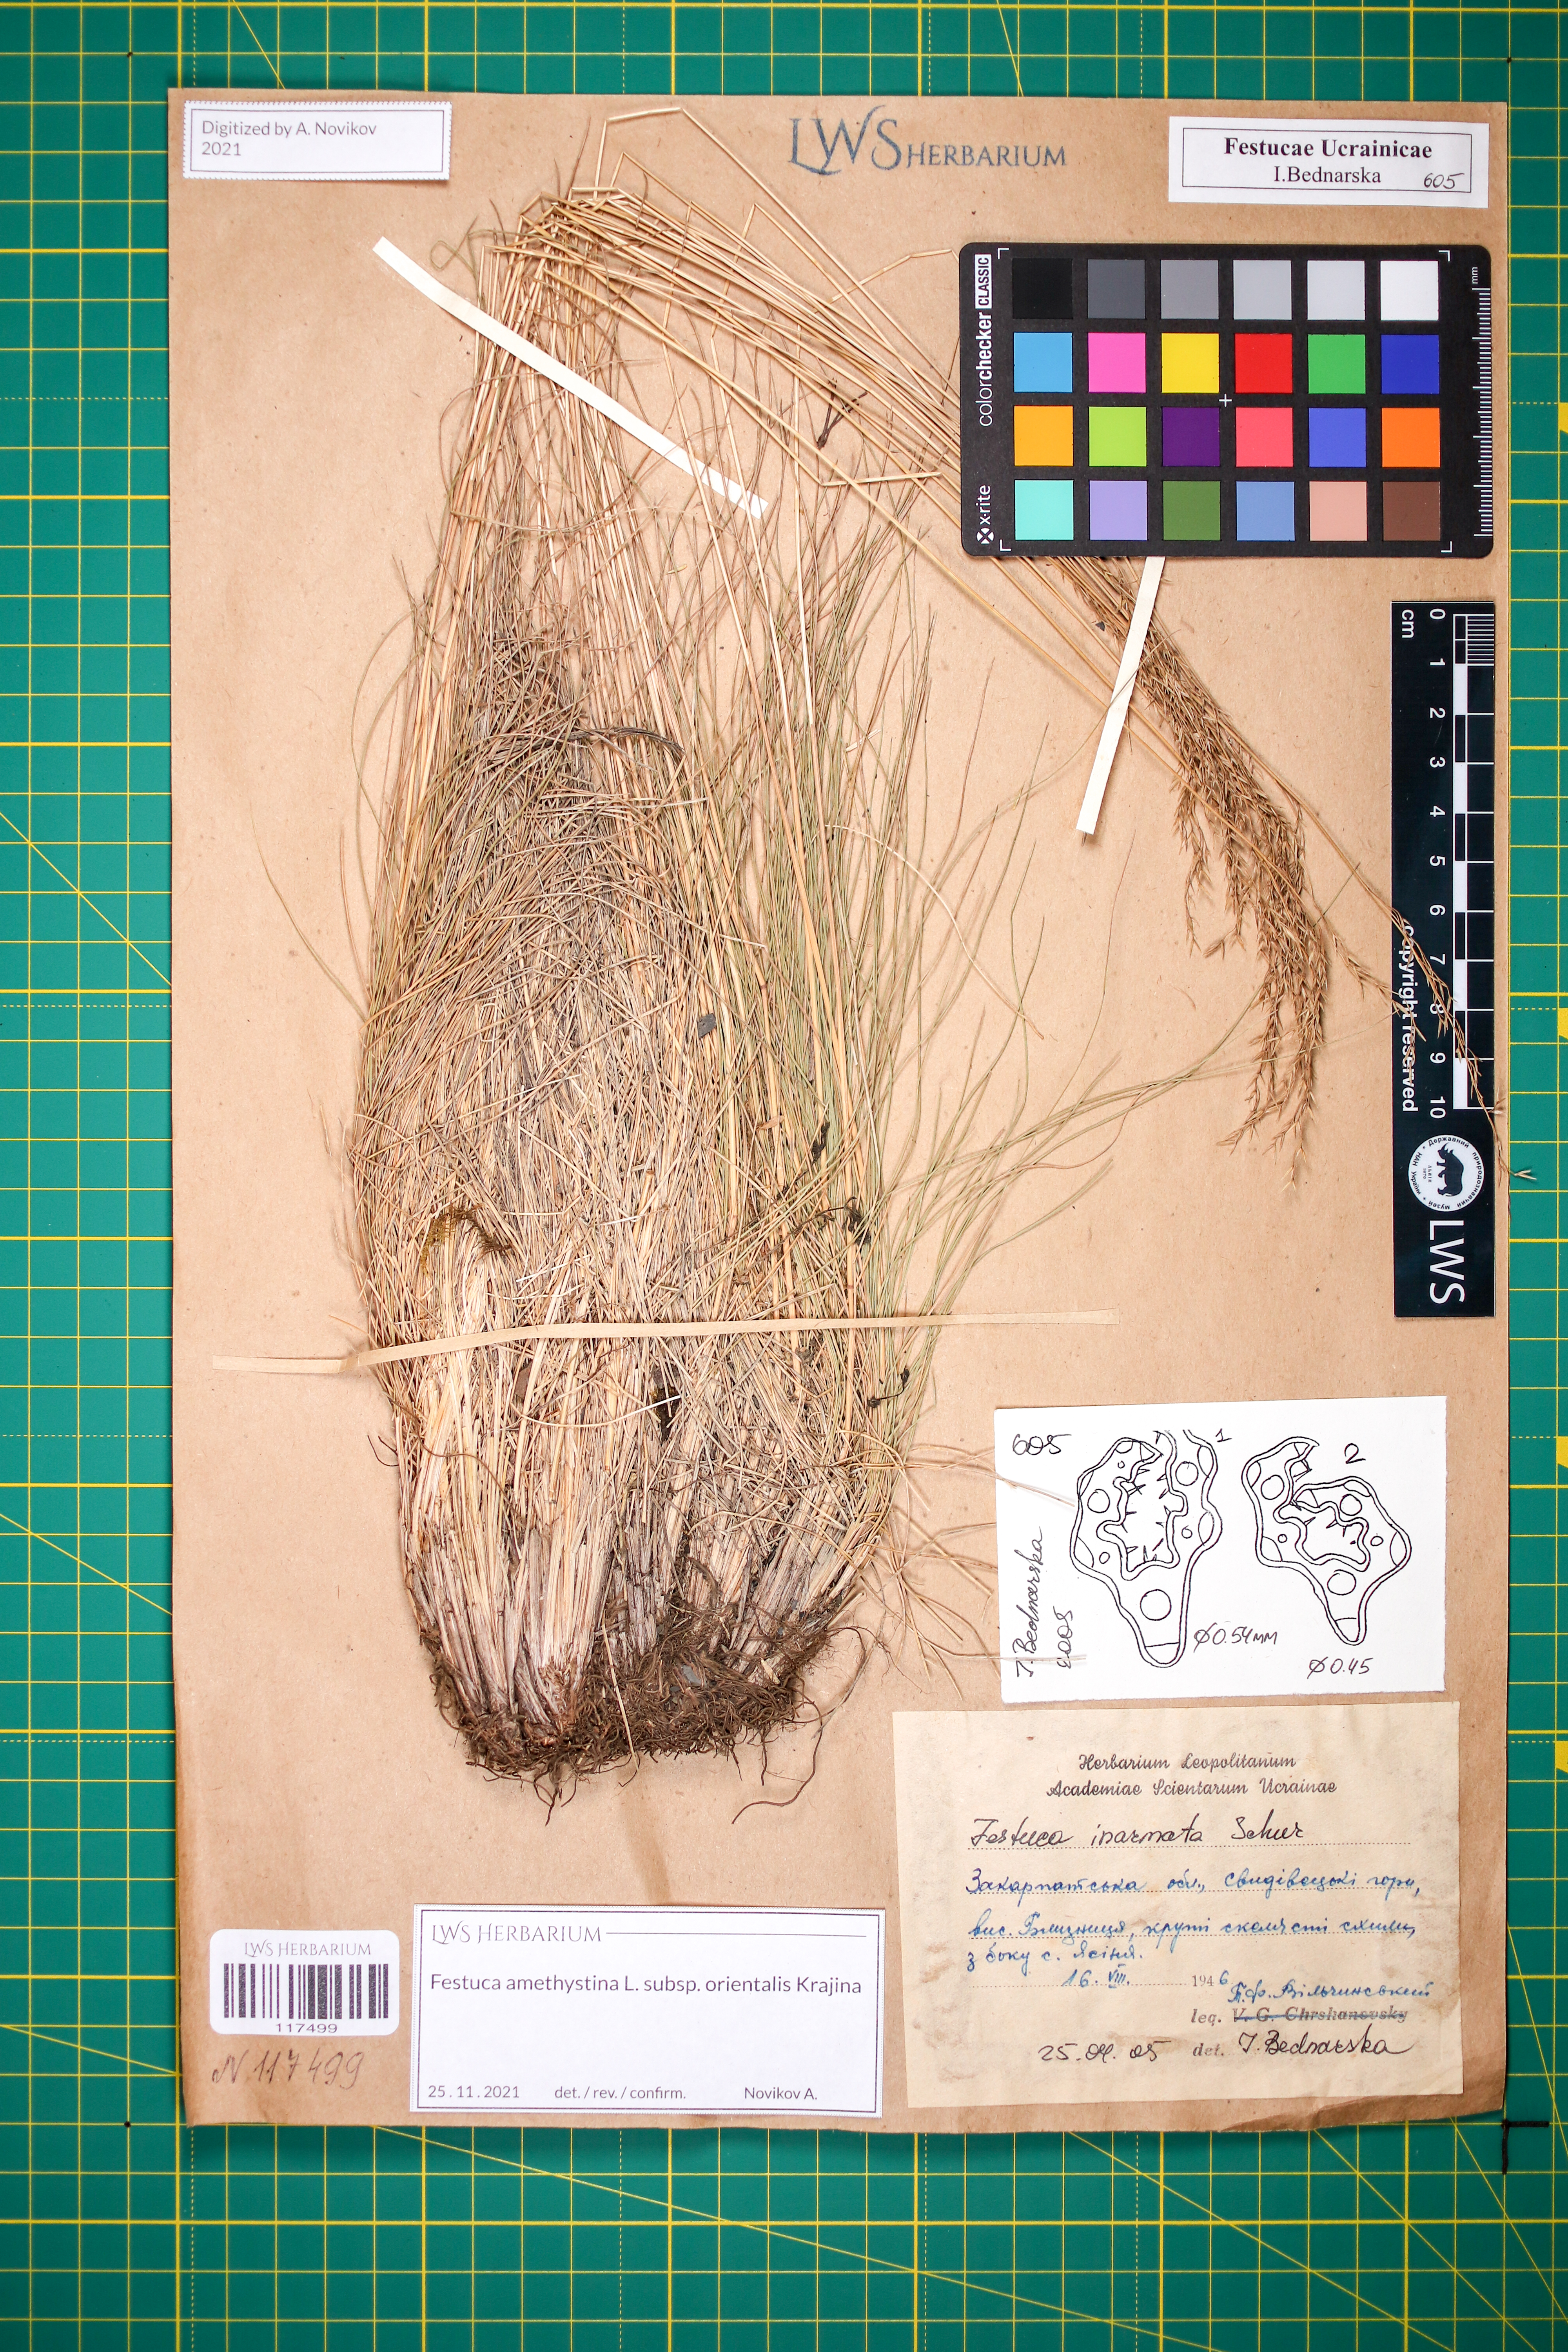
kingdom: Plantae
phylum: Tracheophyta
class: Liliopsida
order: Poales
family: Poaceae
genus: Festuca
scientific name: Festuca amethystina
